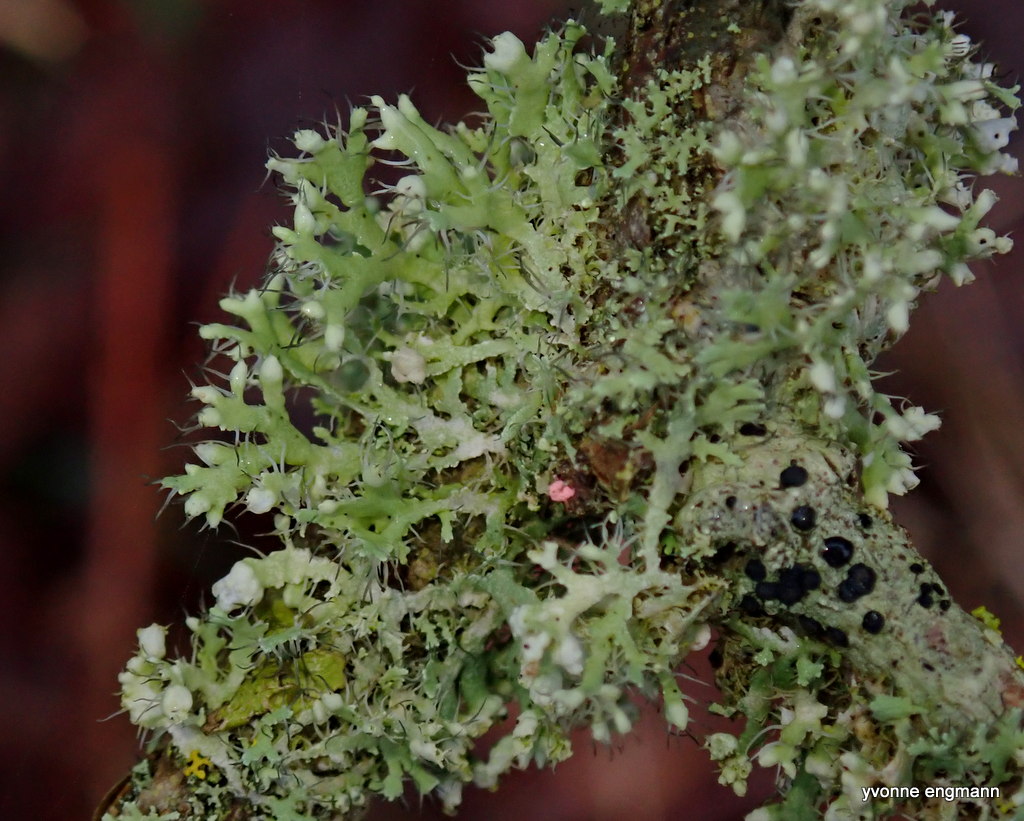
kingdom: Fungi
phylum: Ascomycota
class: Lecanoromycetes
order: Caliciales
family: Physciaceae
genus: Physcia
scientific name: Physcia tenella
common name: spæd rosetlav
